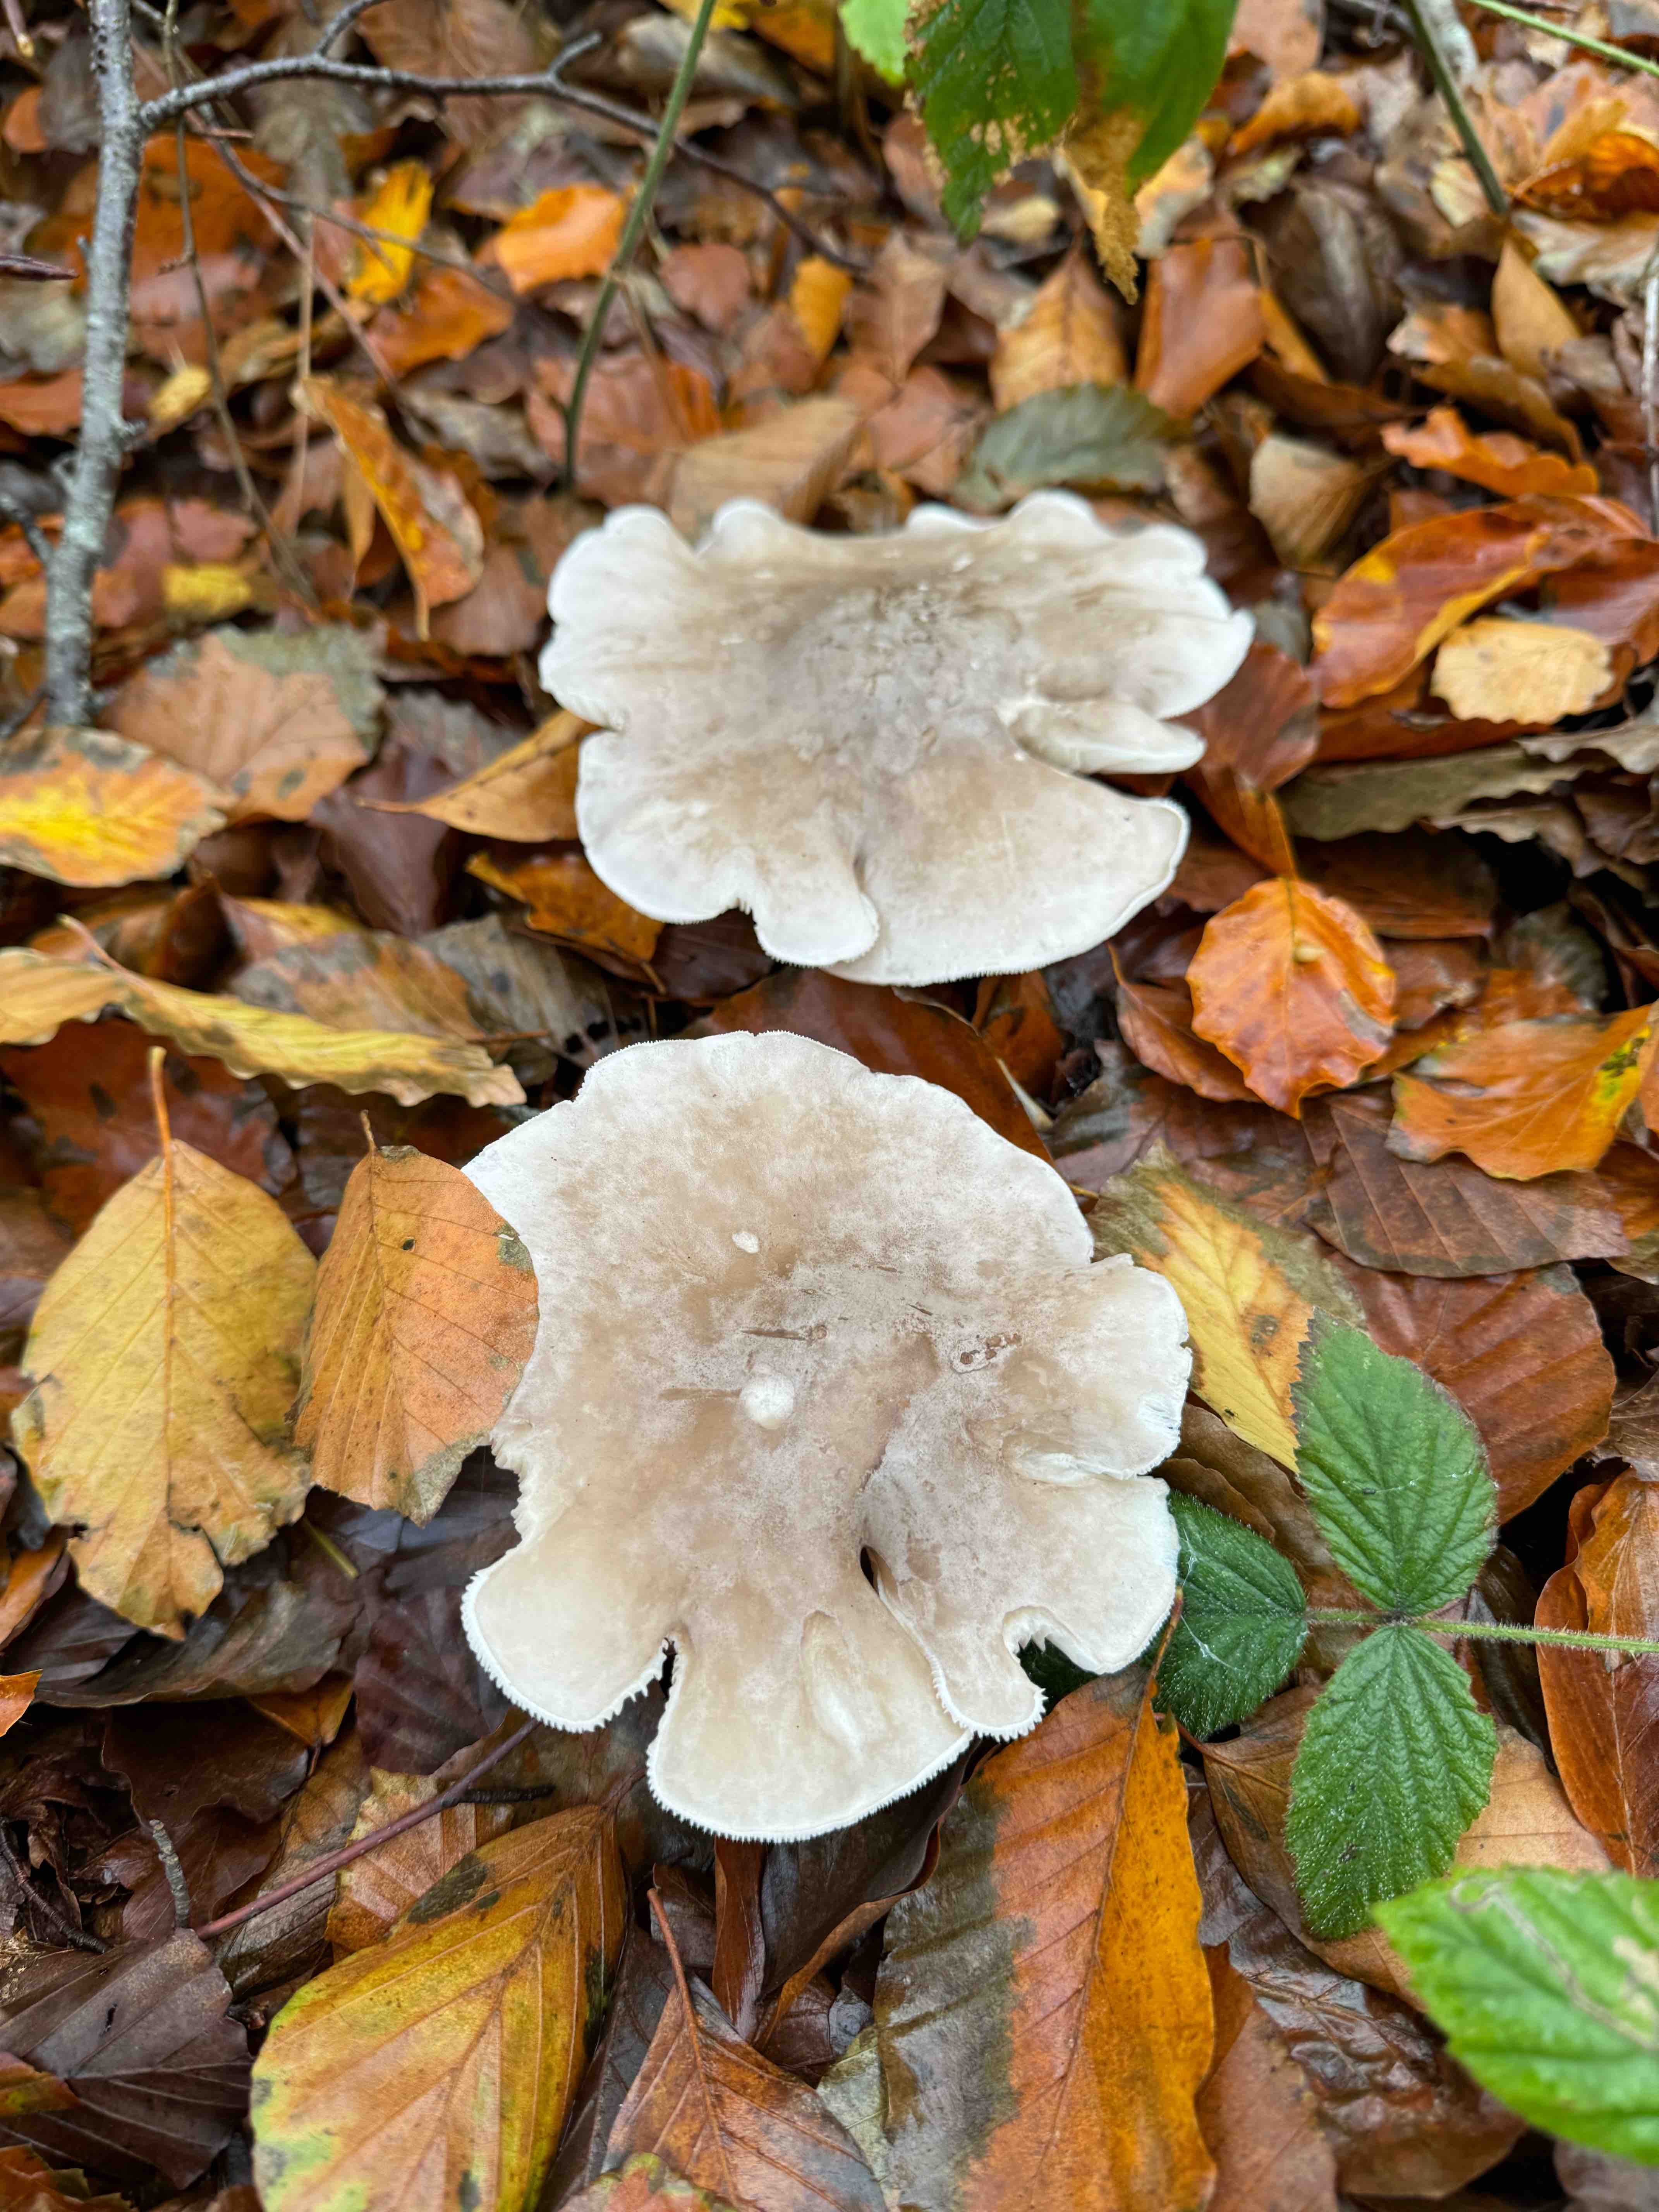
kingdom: Fungi
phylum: Basidiomycota
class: Agaricomycetes
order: Agaricales
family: Tricholomataceae
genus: Clitocybe
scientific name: Clitocybe nebularis
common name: tåge-tragthat
